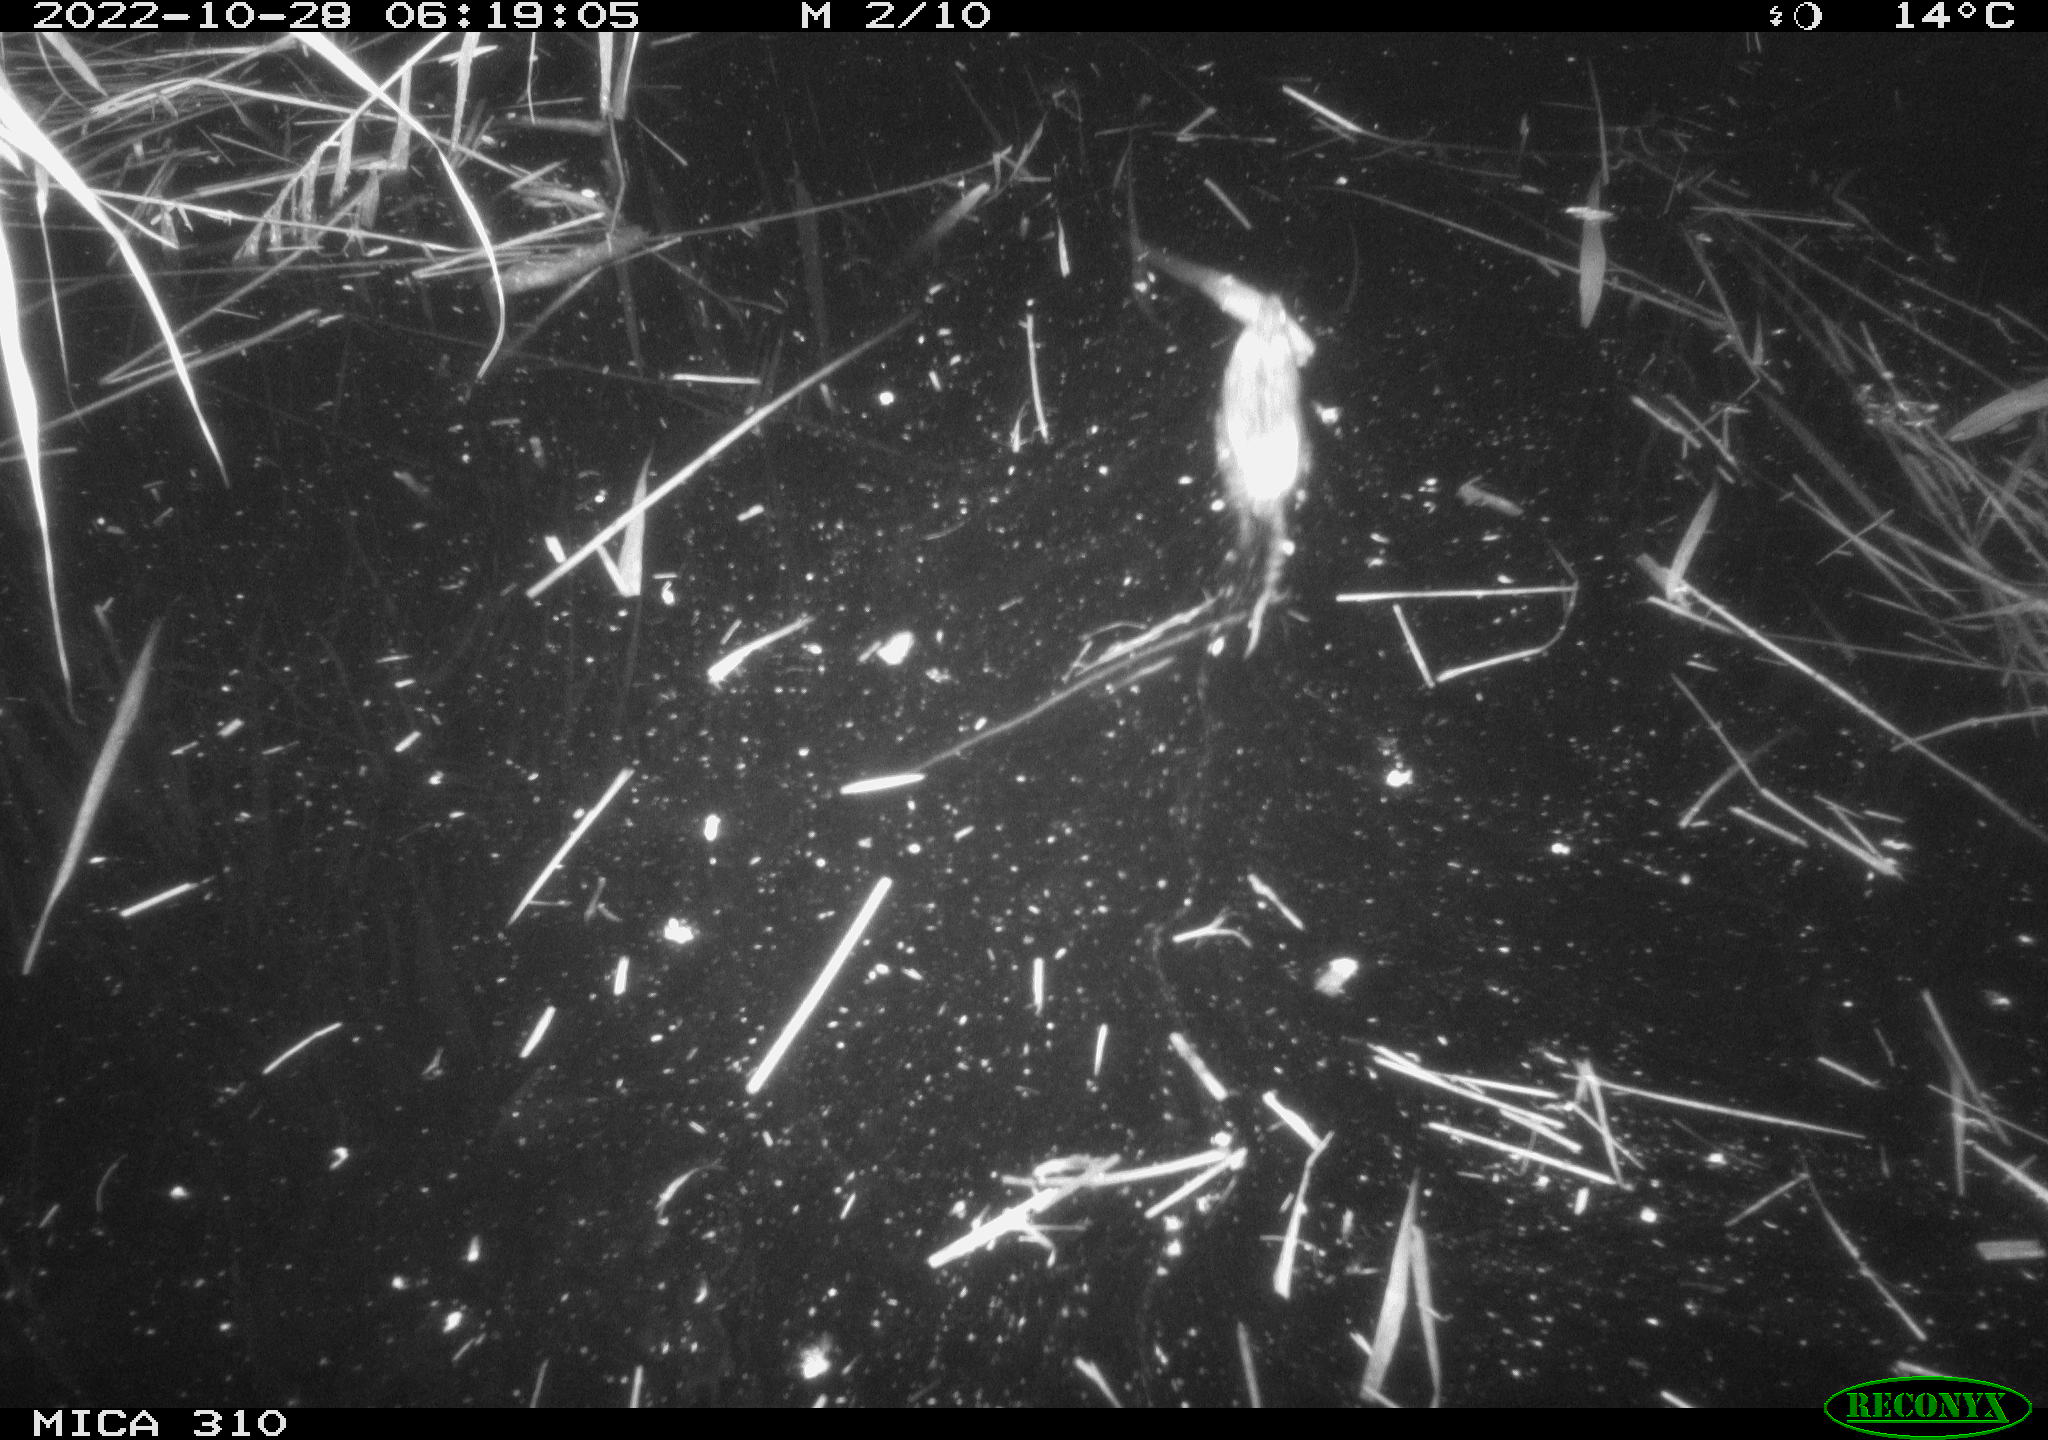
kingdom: Animalia
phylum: Chordata
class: Mammalia
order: Rodentia
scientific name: Rodentia
